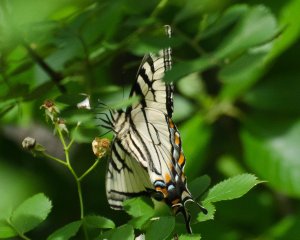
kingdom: Animalia
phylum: Arthropoda
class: Insecta
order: Lepidoptera
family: Papilionidae
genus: Pterourus
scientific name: Pterourus canadensis
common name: Canadian Tiger Swallowtail
